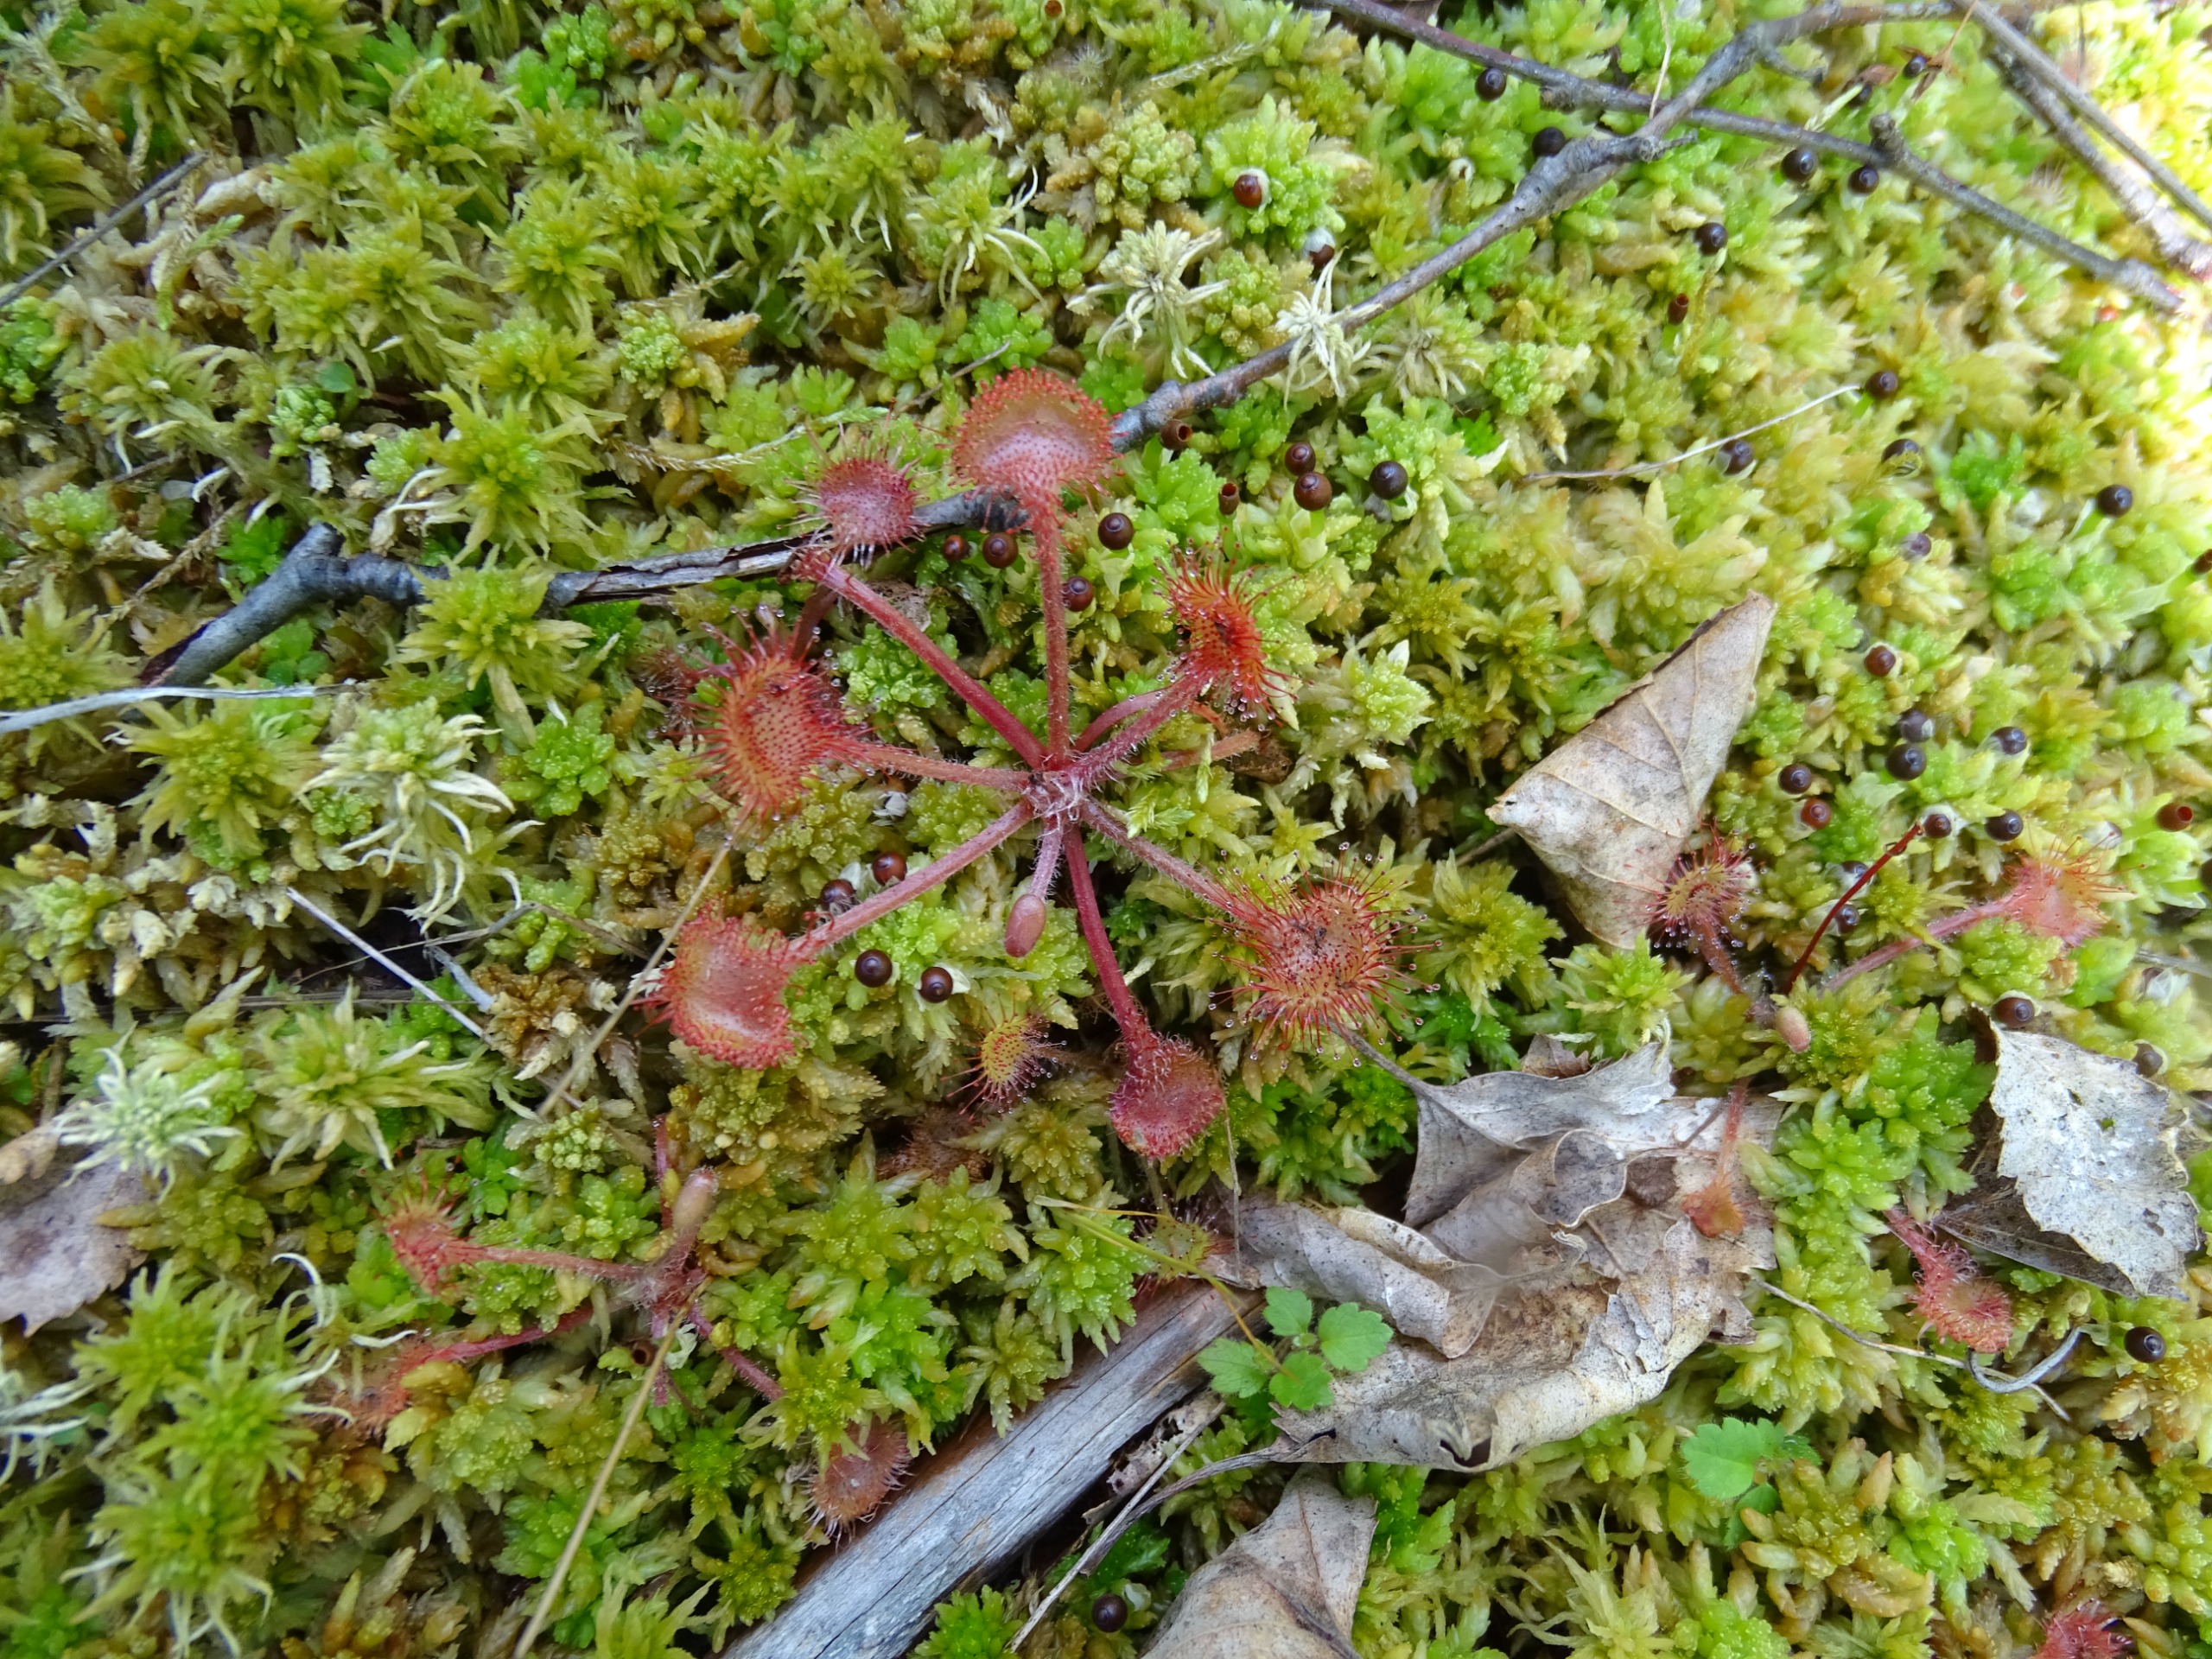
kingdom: Plantae
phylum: Tracheophyta
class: Magnoliopsida
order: Caryophyllales
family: Droseraceae
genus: Drosera
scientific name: Drosera rotundifolia
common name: Rundbladet soldug
